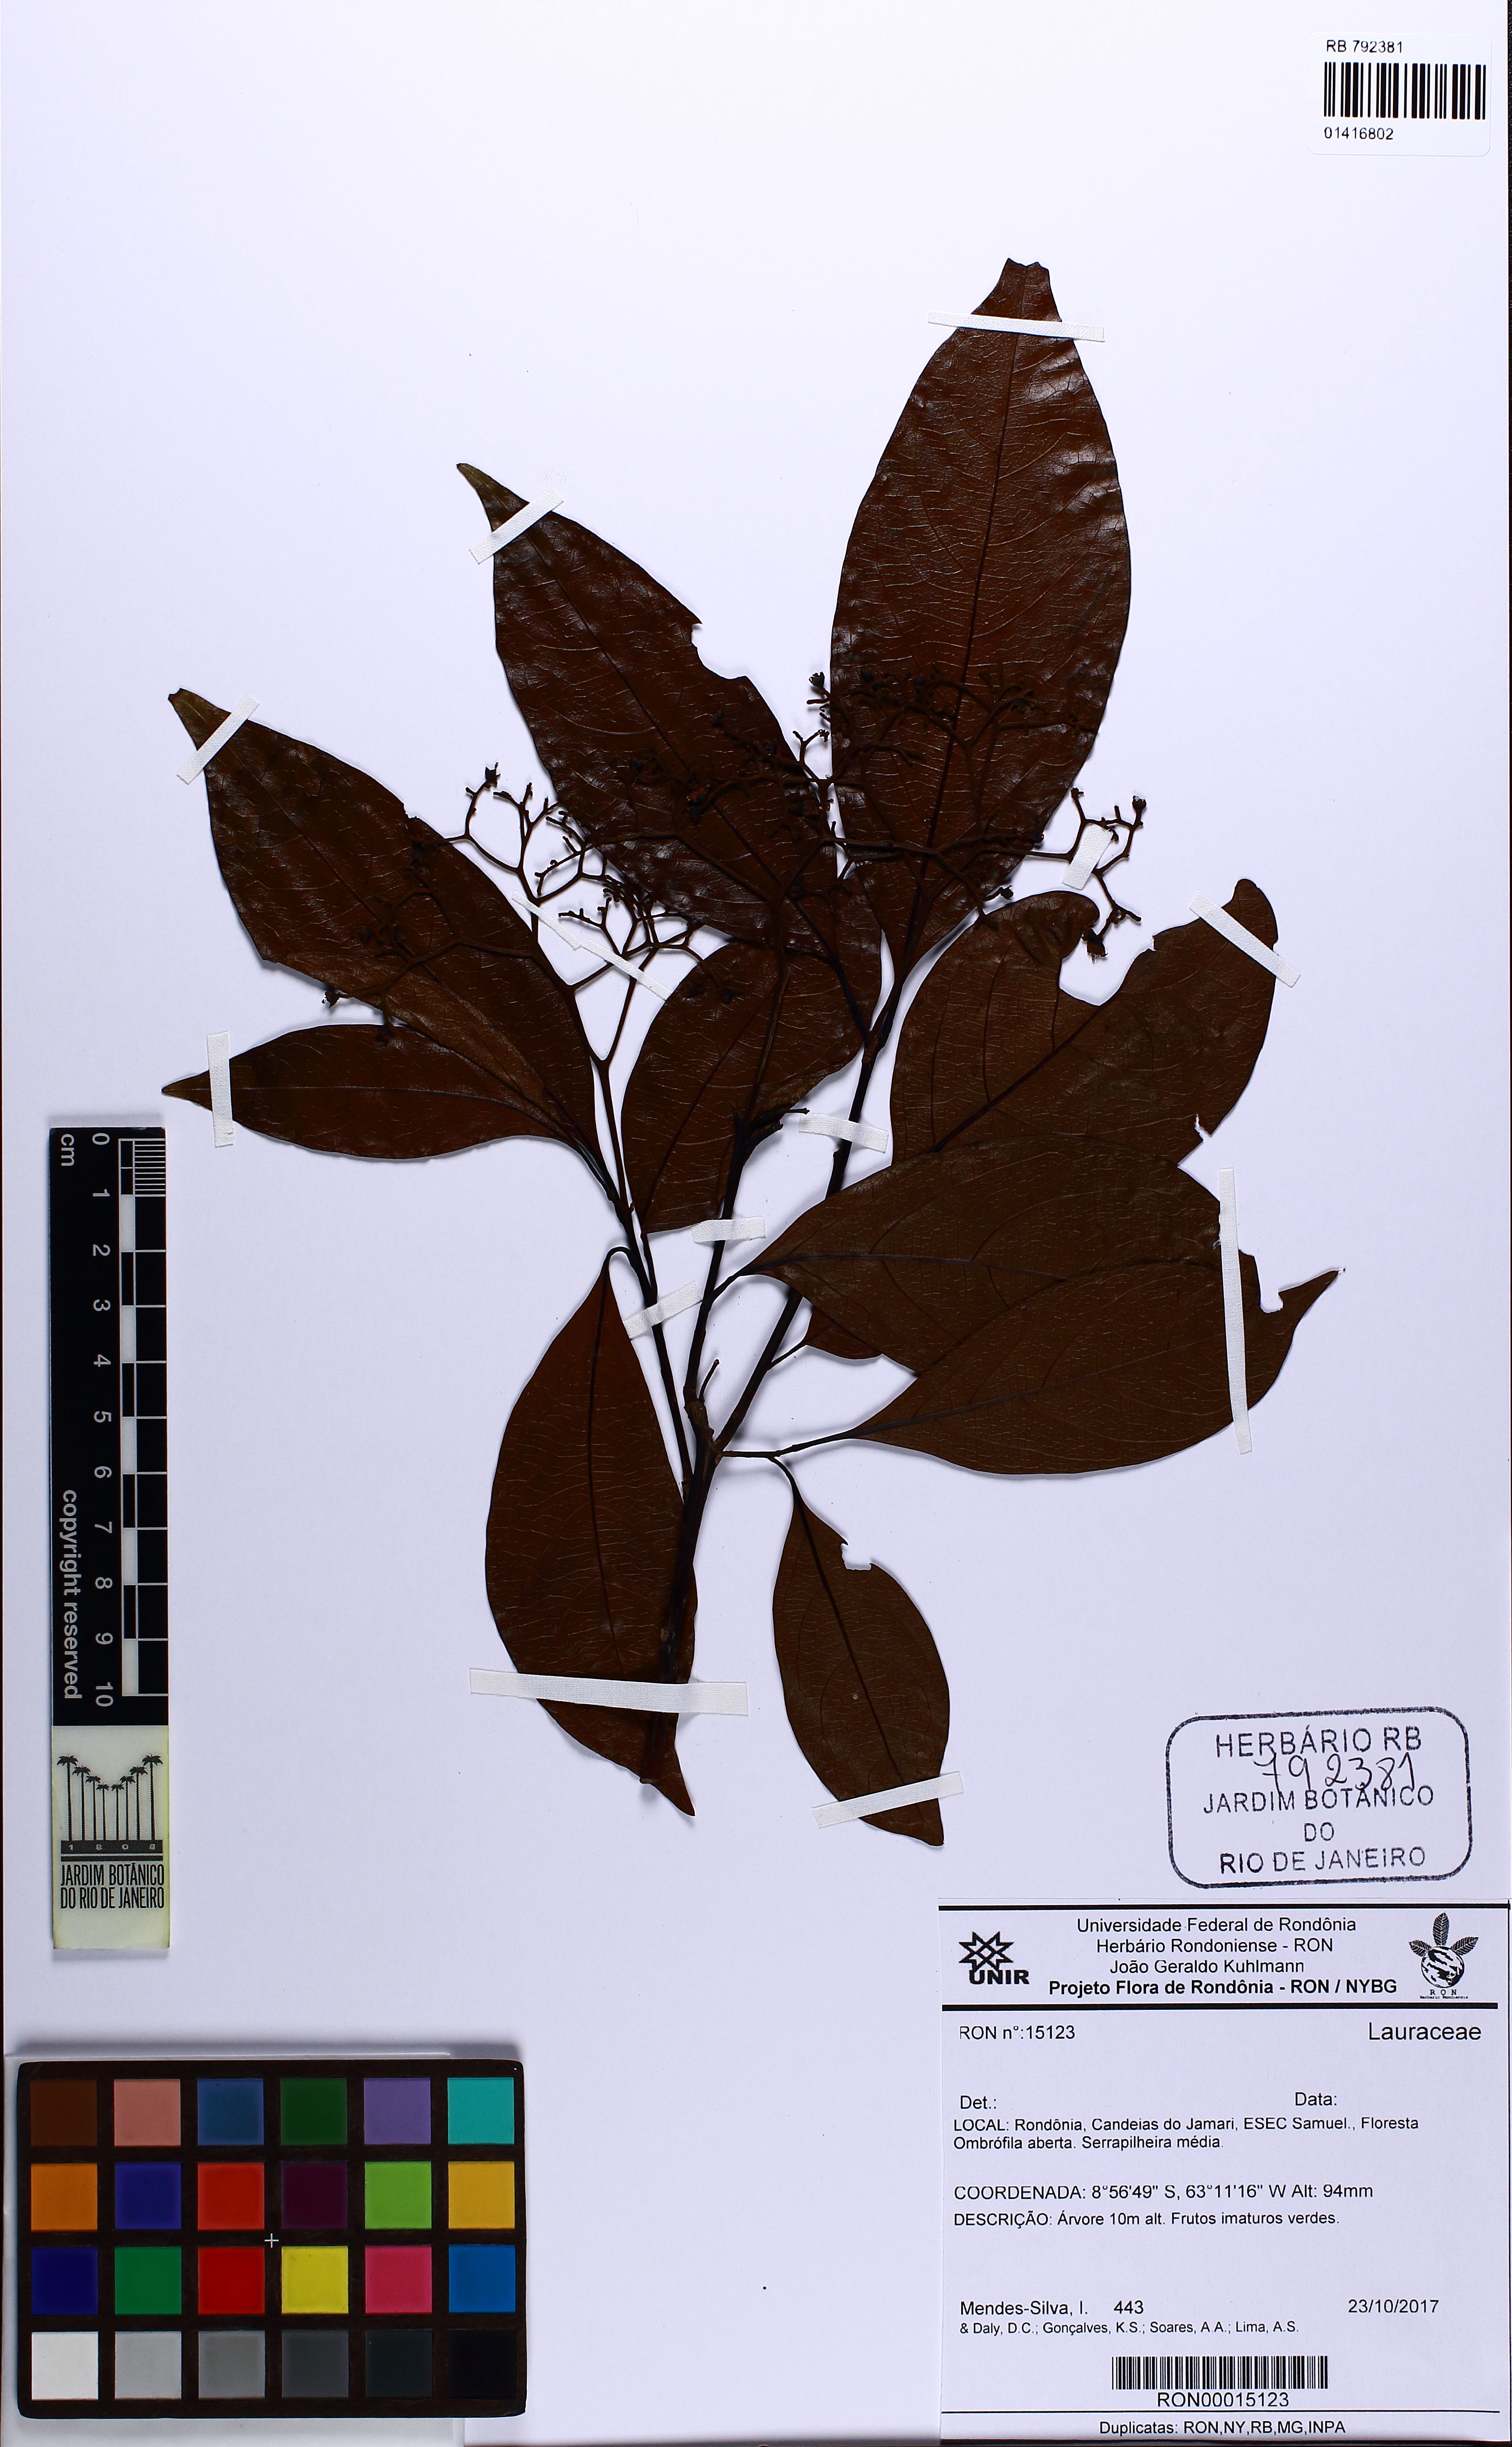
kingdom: Plantae
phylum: Tracheophyta
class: Magnoliopsida
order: Laurales
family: Lauraceae
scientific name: Lauraceae
